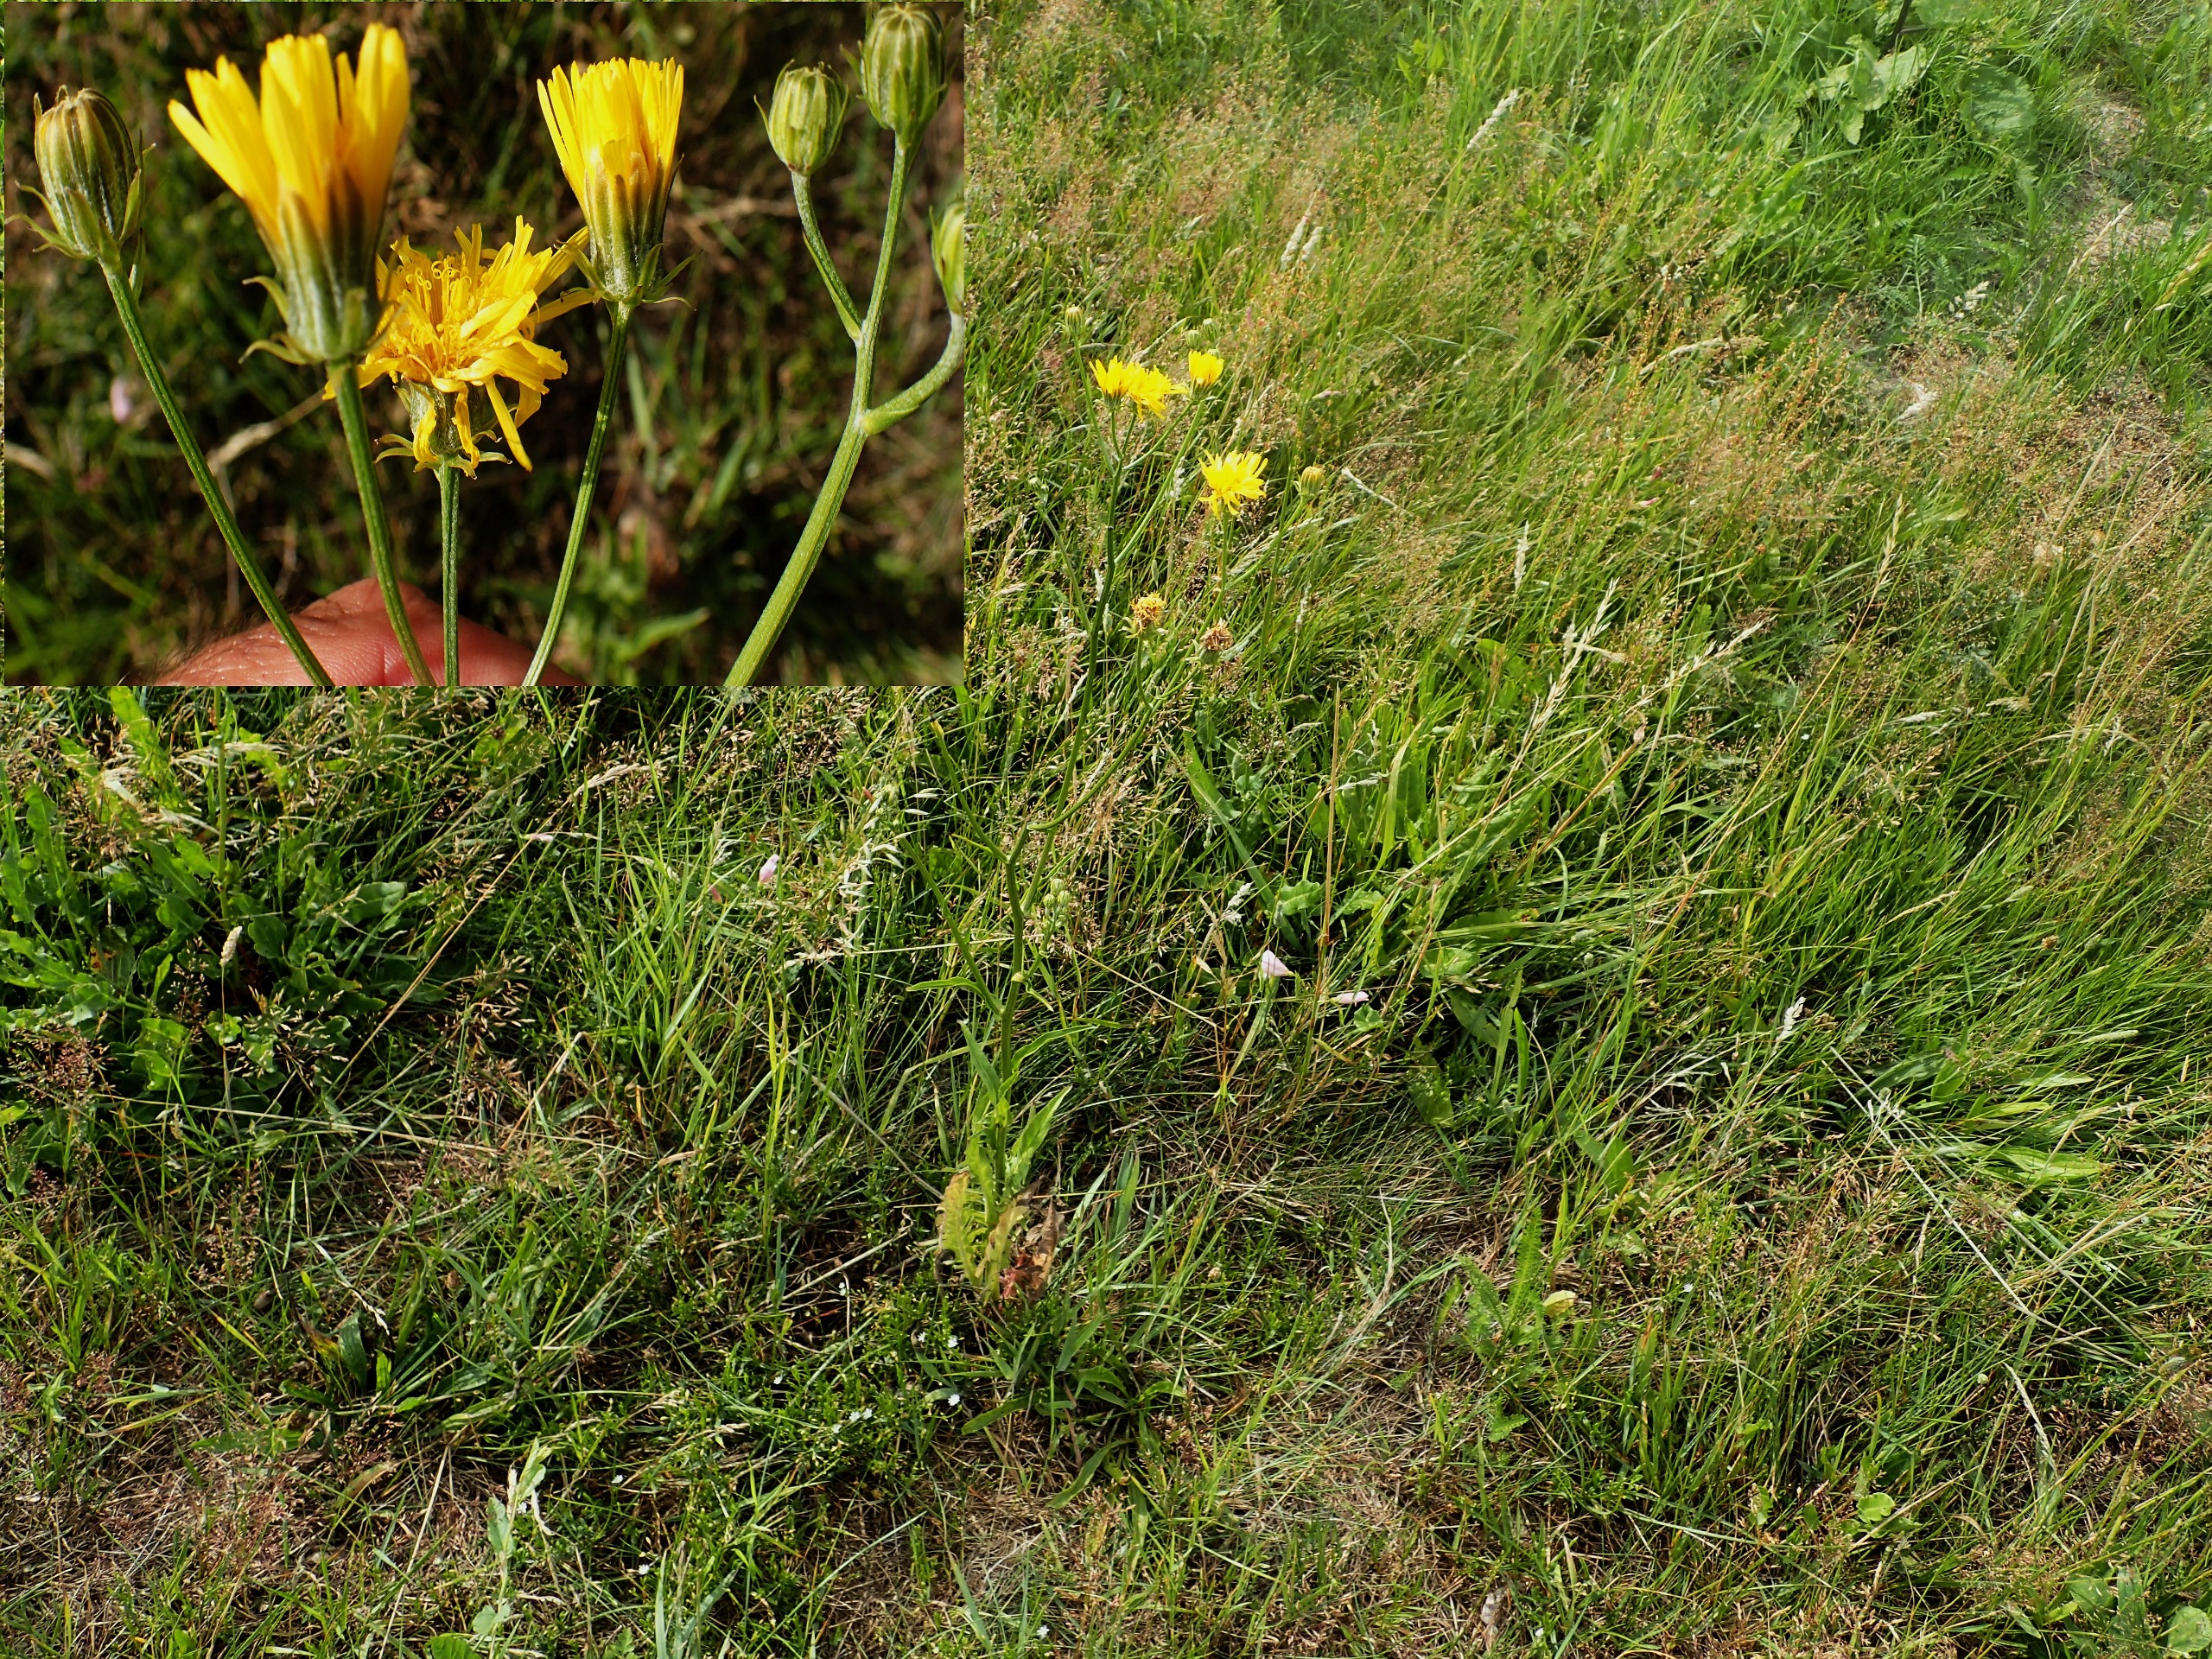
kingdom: Plantae
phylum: Tracheophyta
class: Magnoliopsida
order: Asterales
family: Asteraceae
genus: Crepis
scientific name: Crepis biennis
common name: Toårig høgeskæg
